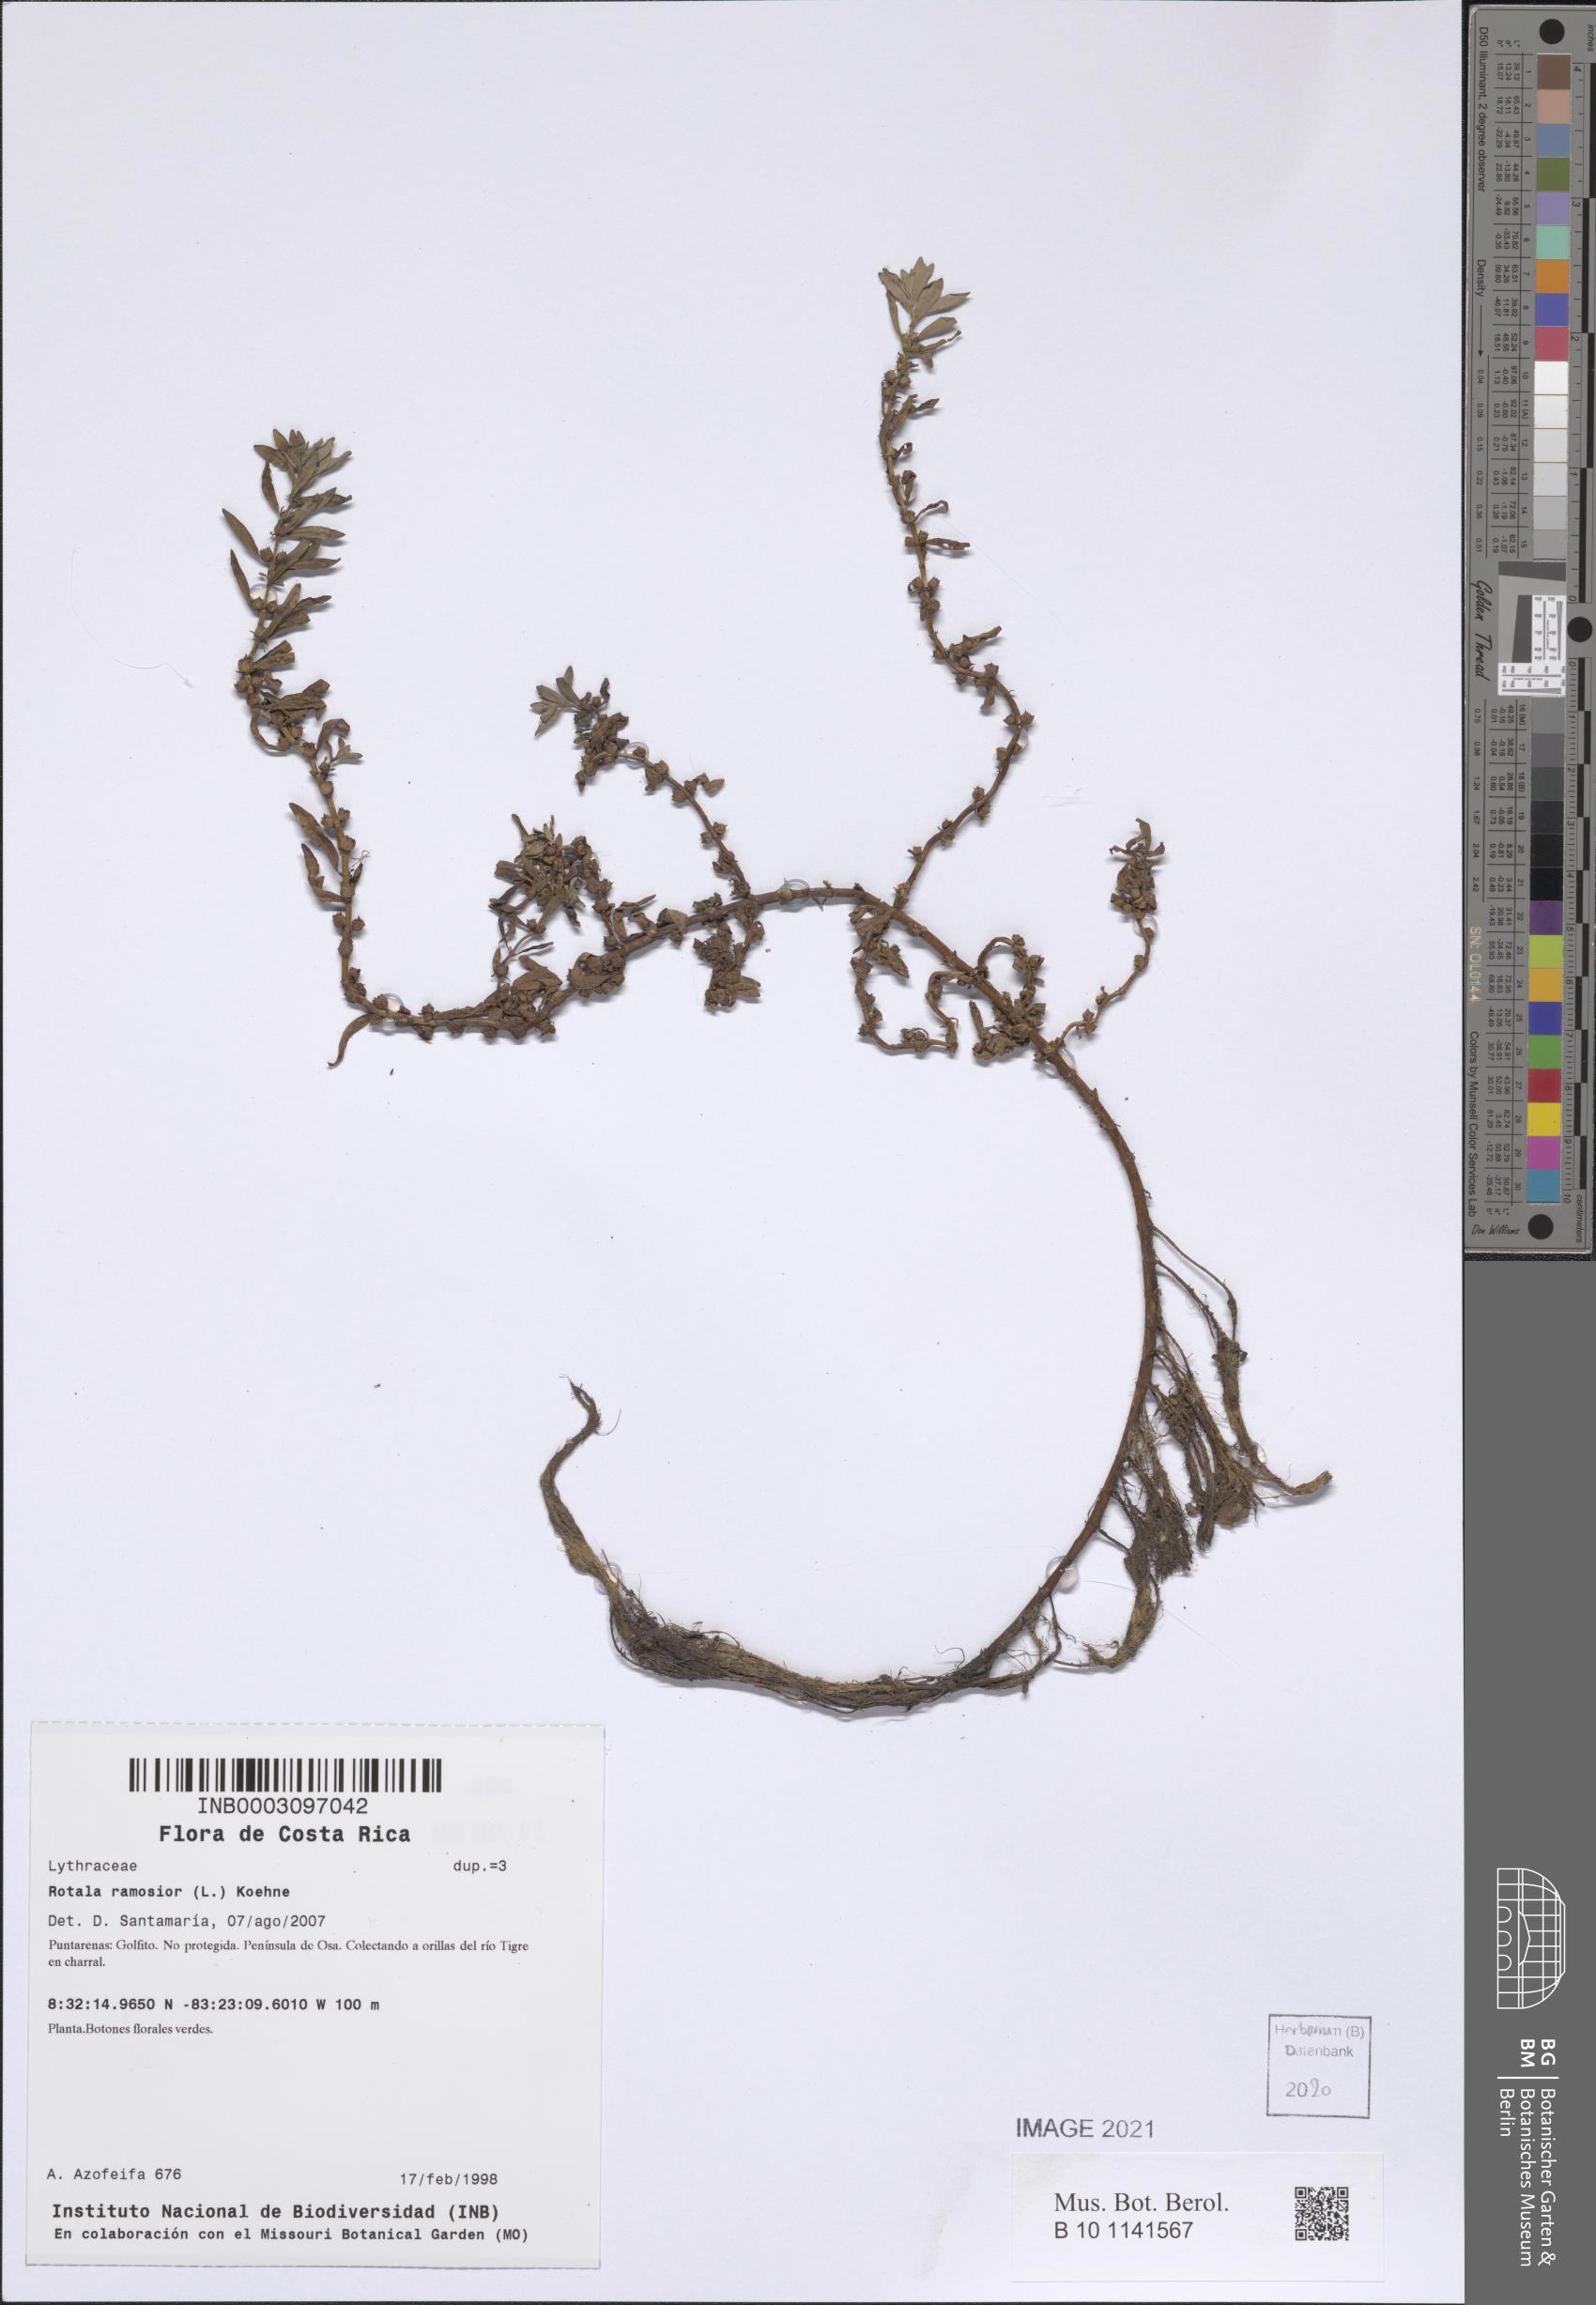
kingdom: Plantae
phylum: Tracheophyta
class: Magnoliopsida
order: Myrtales
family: Lythraceae
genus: Rotala
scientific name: Rotala ramosior
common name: Lowland rotala
